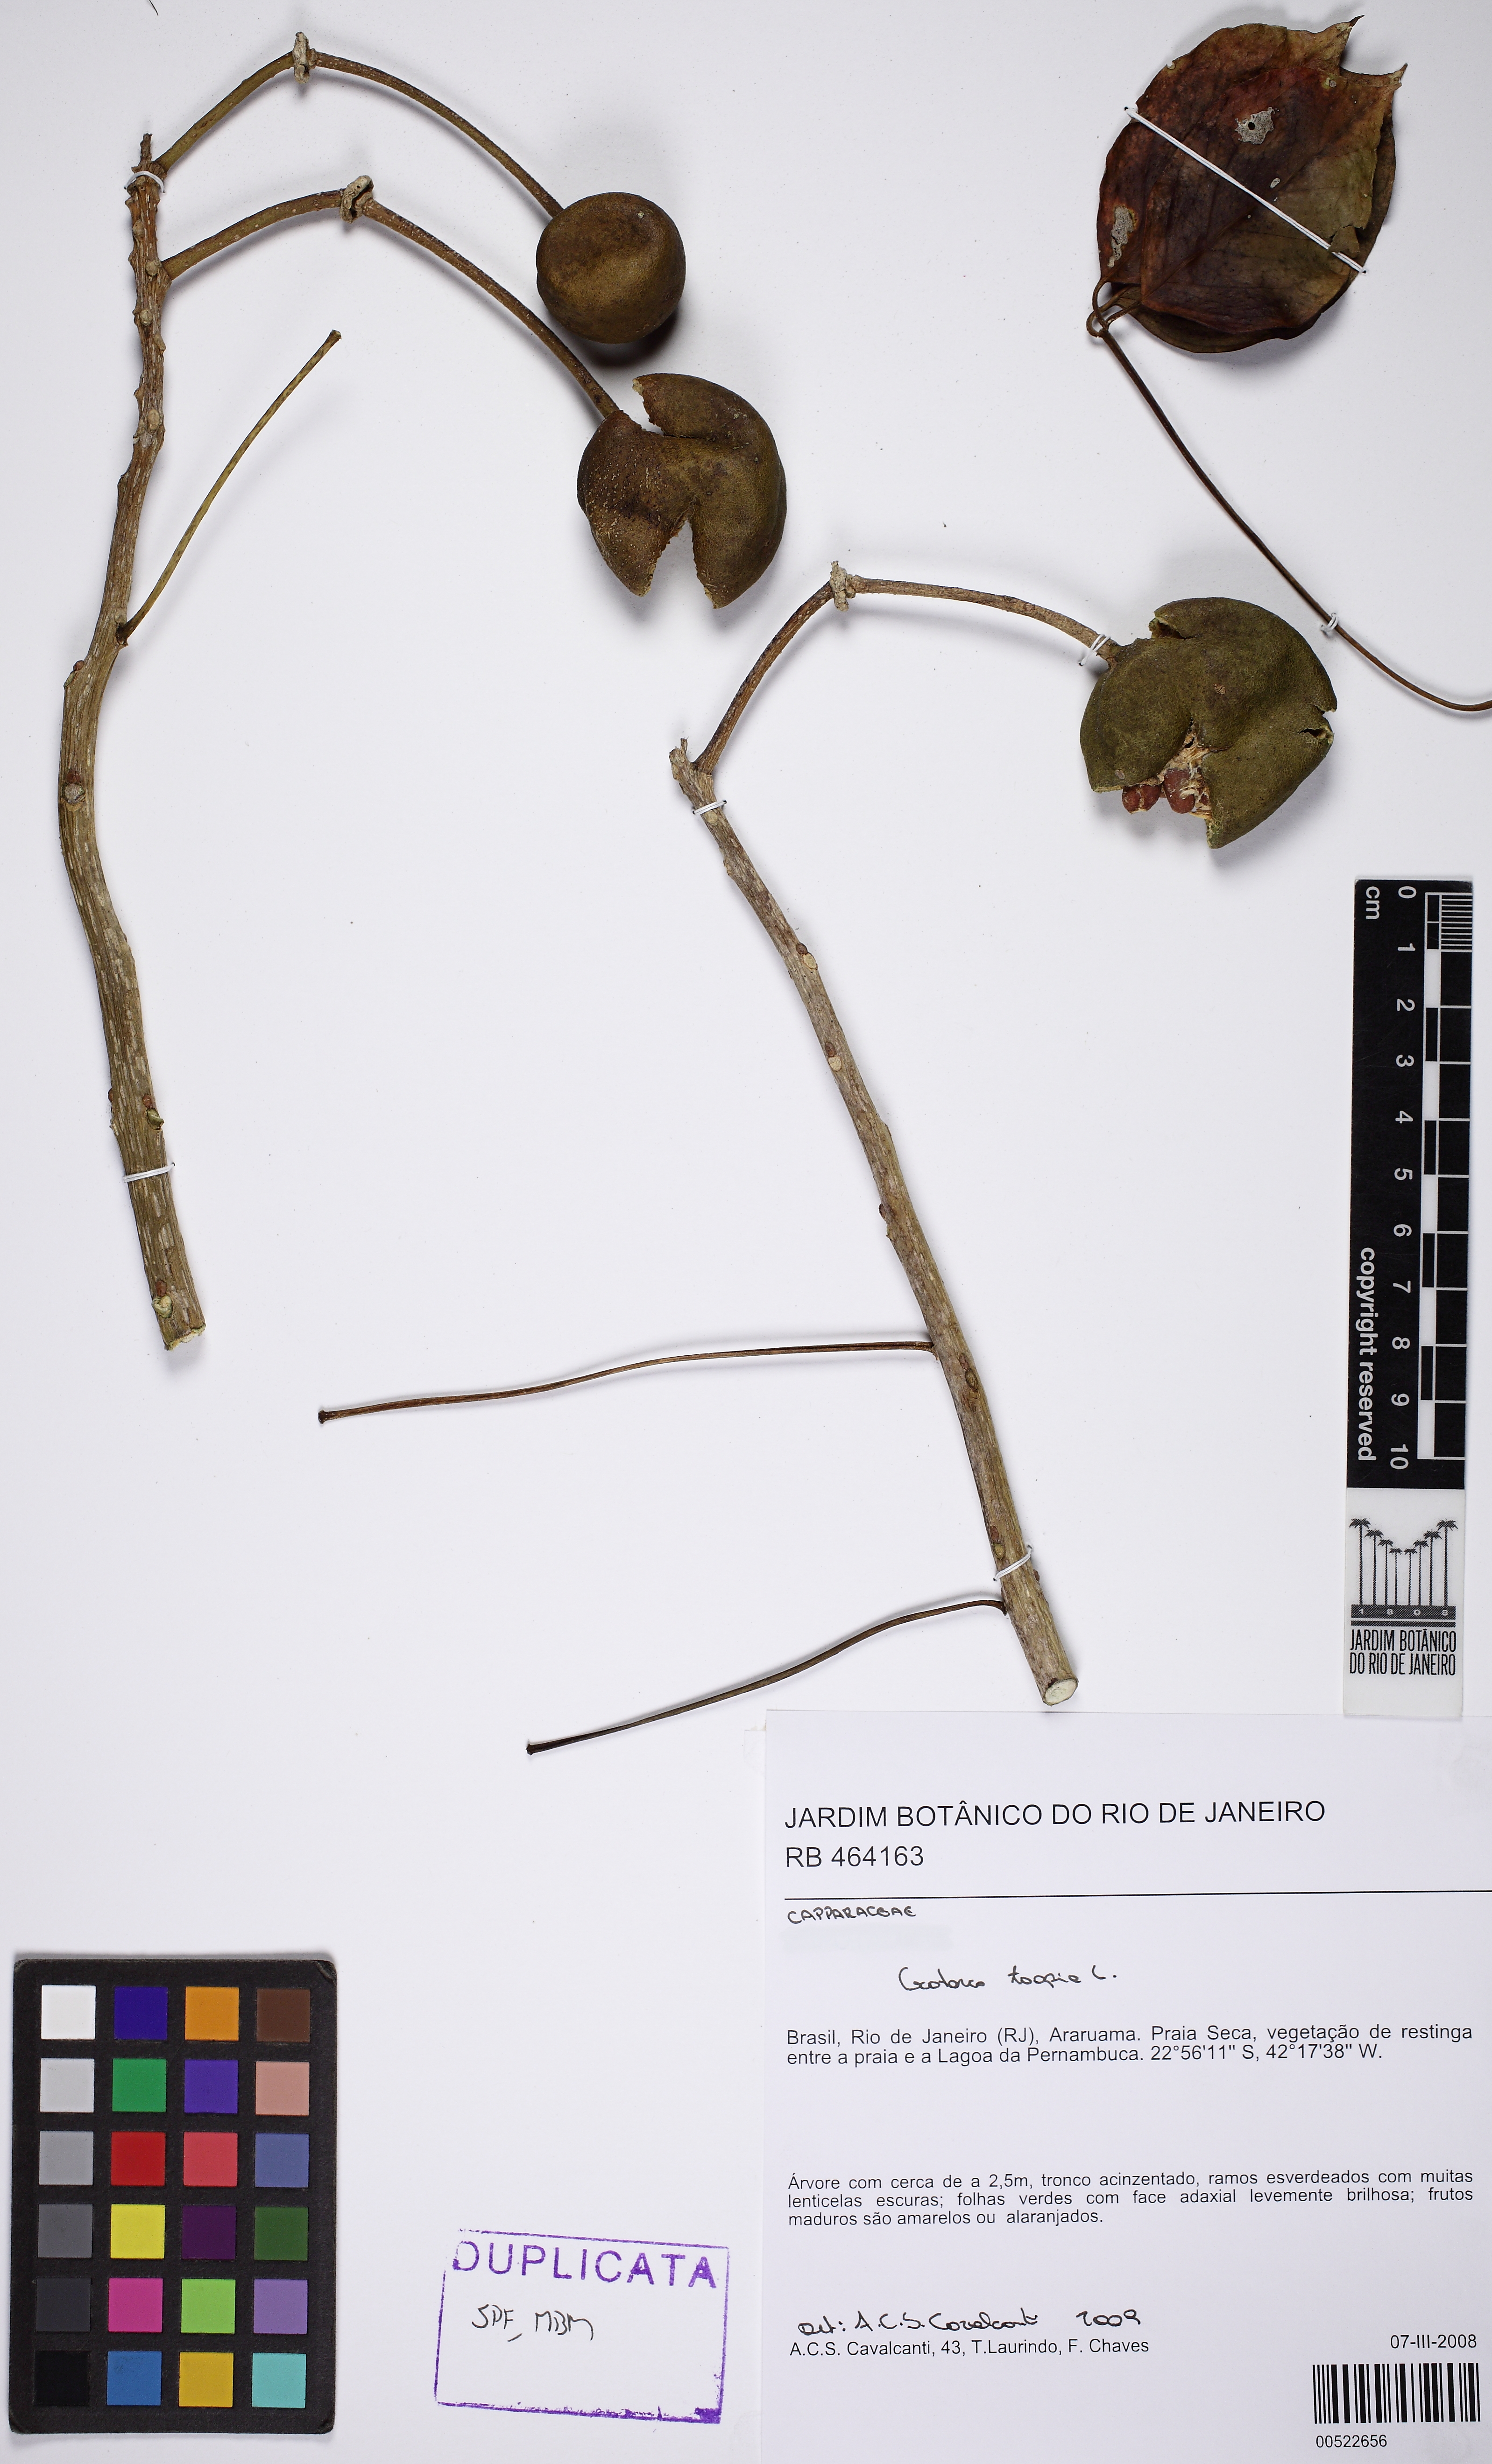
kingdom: Plantae
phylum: Tracheophyta
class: Magnoliopsida
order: Brassicales
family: Capparaceae
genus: Crateva
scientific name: Crateva tapia
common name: Garlic-pear
